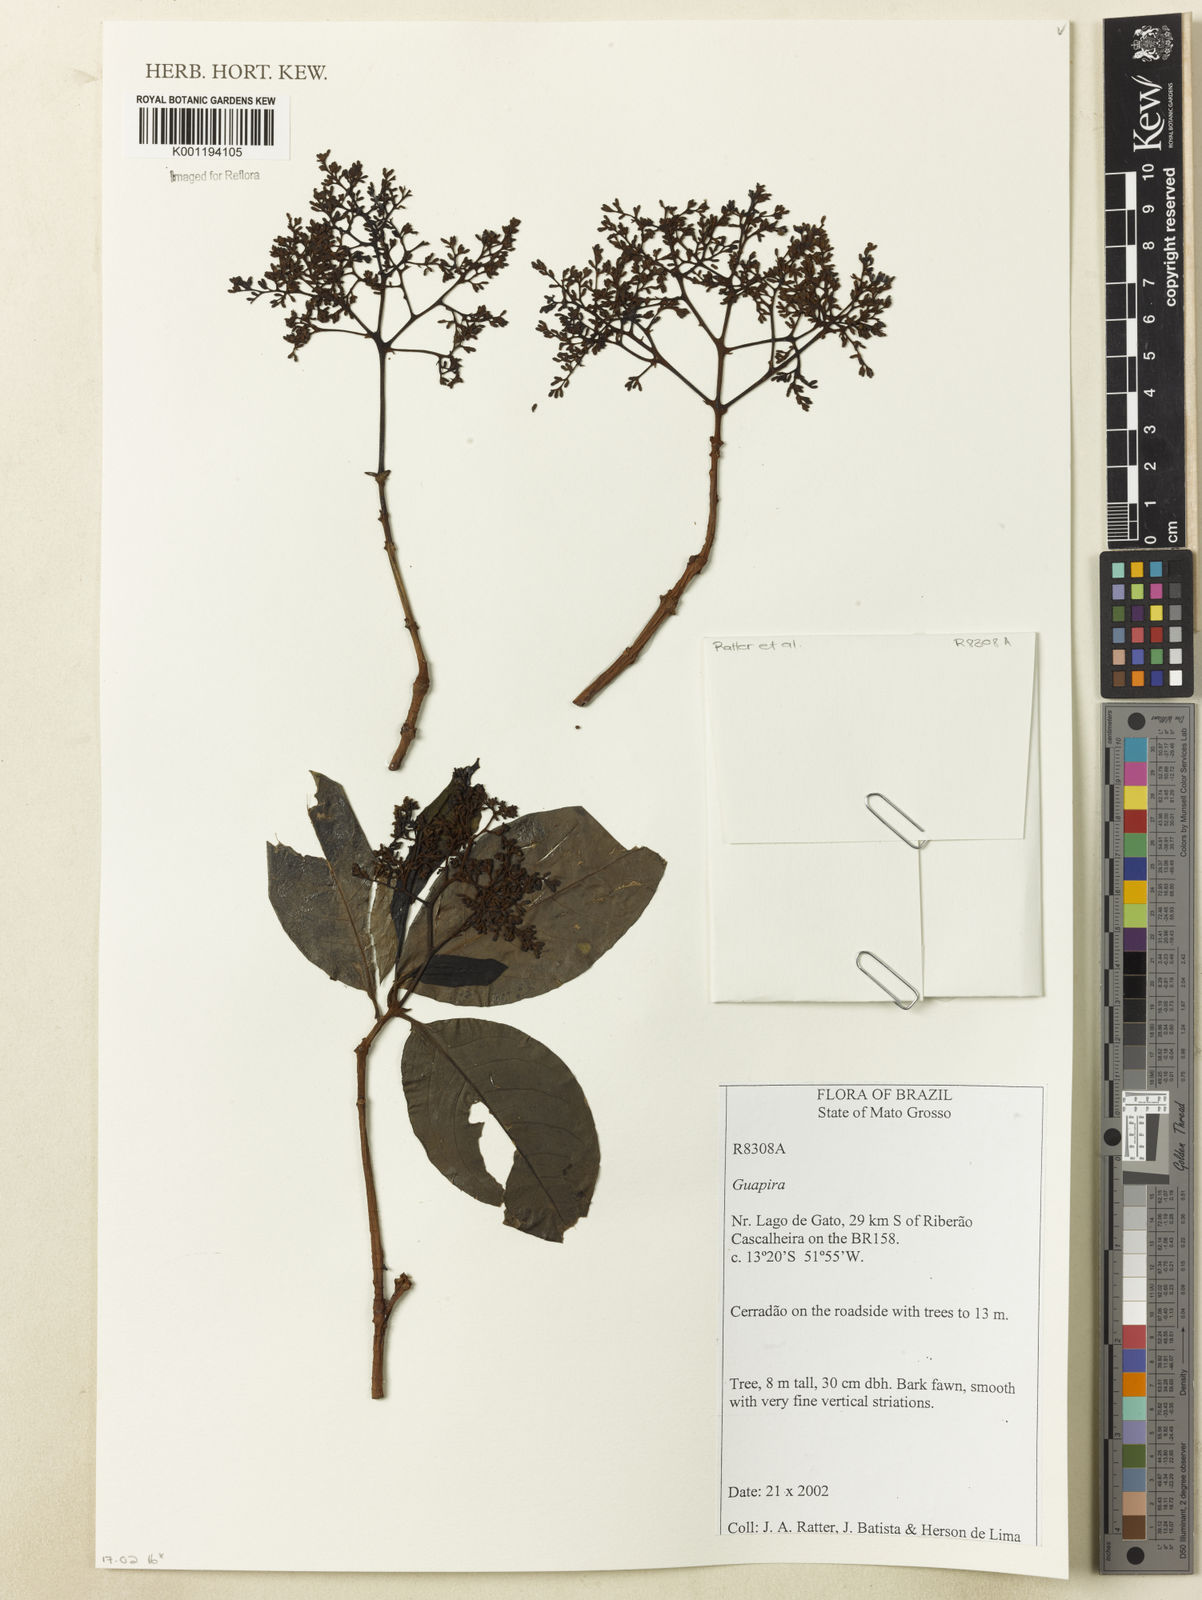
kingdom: Plantae
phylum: Tracheophyta
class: Magnoliopsida
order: Caryophyllales
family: Nyctaginaceae
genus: Guapira
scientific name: Guapira
